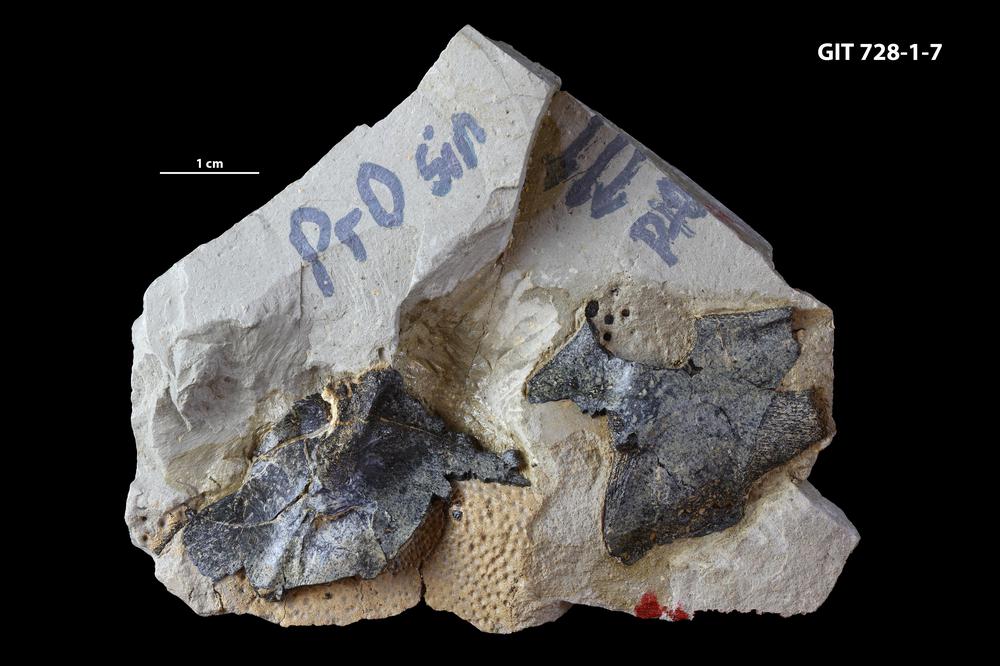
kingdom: Animalia
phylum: Chordata
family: Coccosteidae
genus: Watsonosteus
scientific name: Watsonosteus
